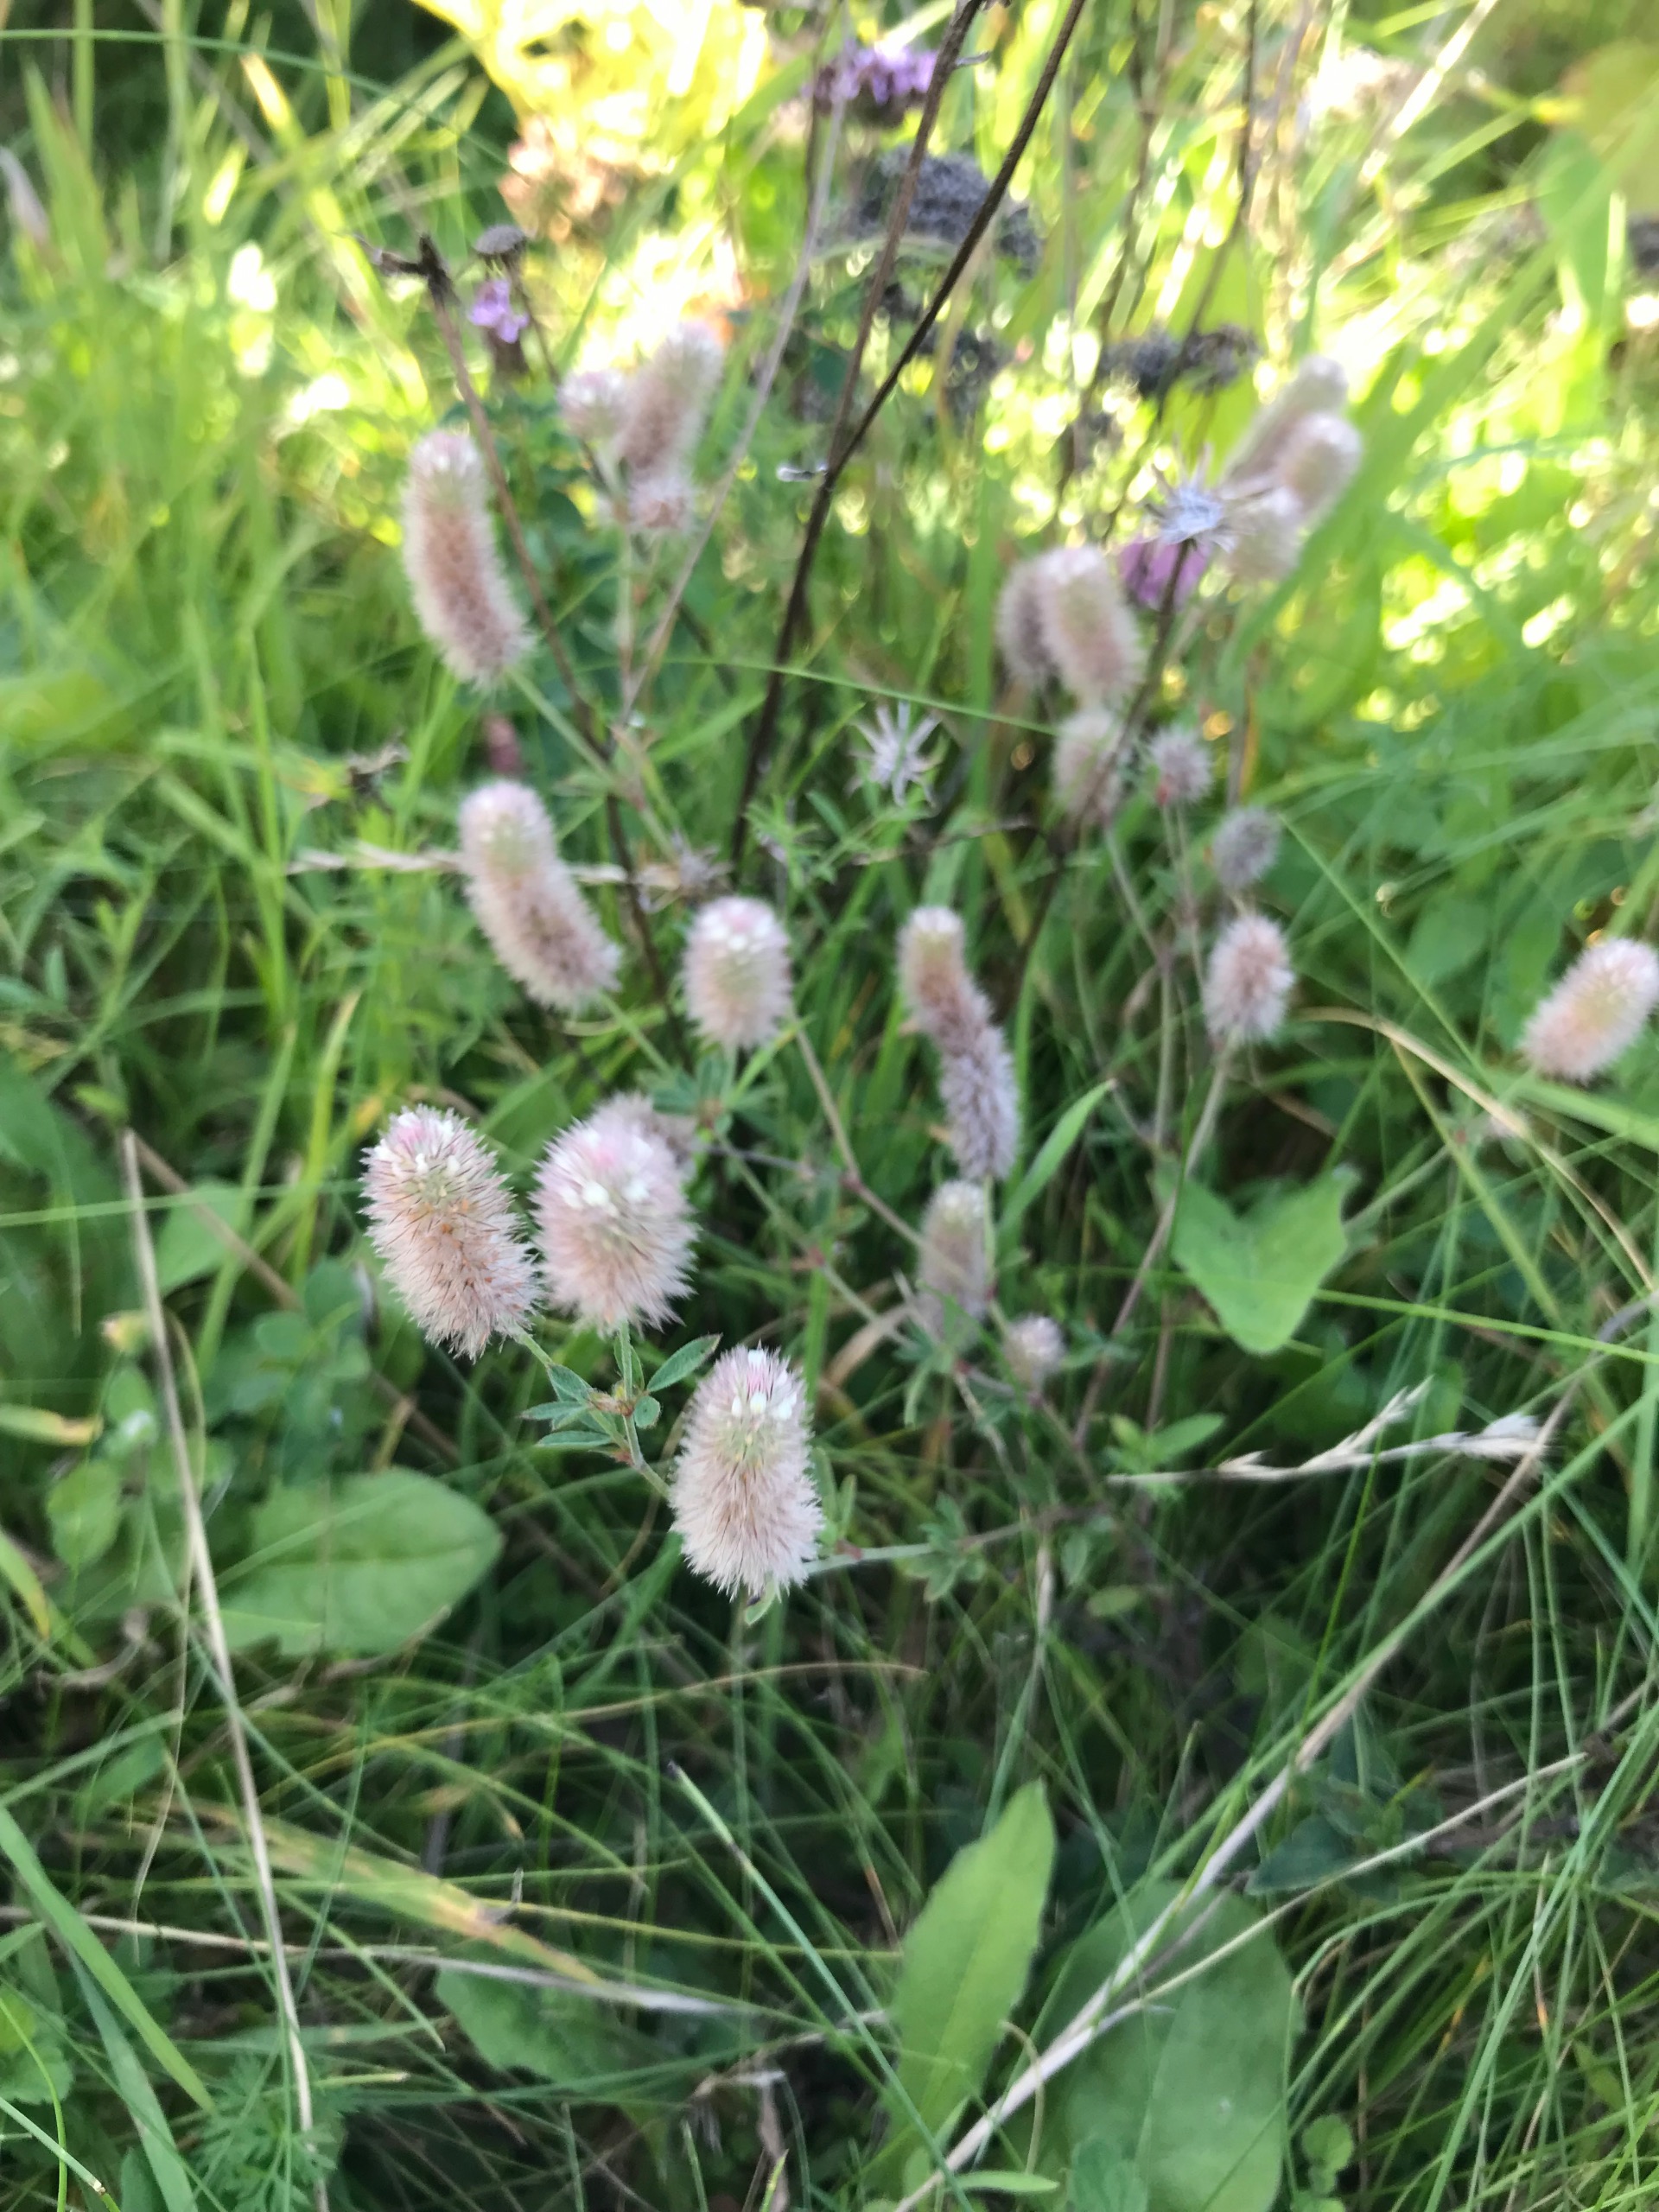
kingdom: Plantae
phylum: Tracheophyta
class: Magnoliopsida
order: Fabales
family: Fabaceae
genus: Trifolium
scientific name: Trifolium arvense
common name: Hare-kløver
